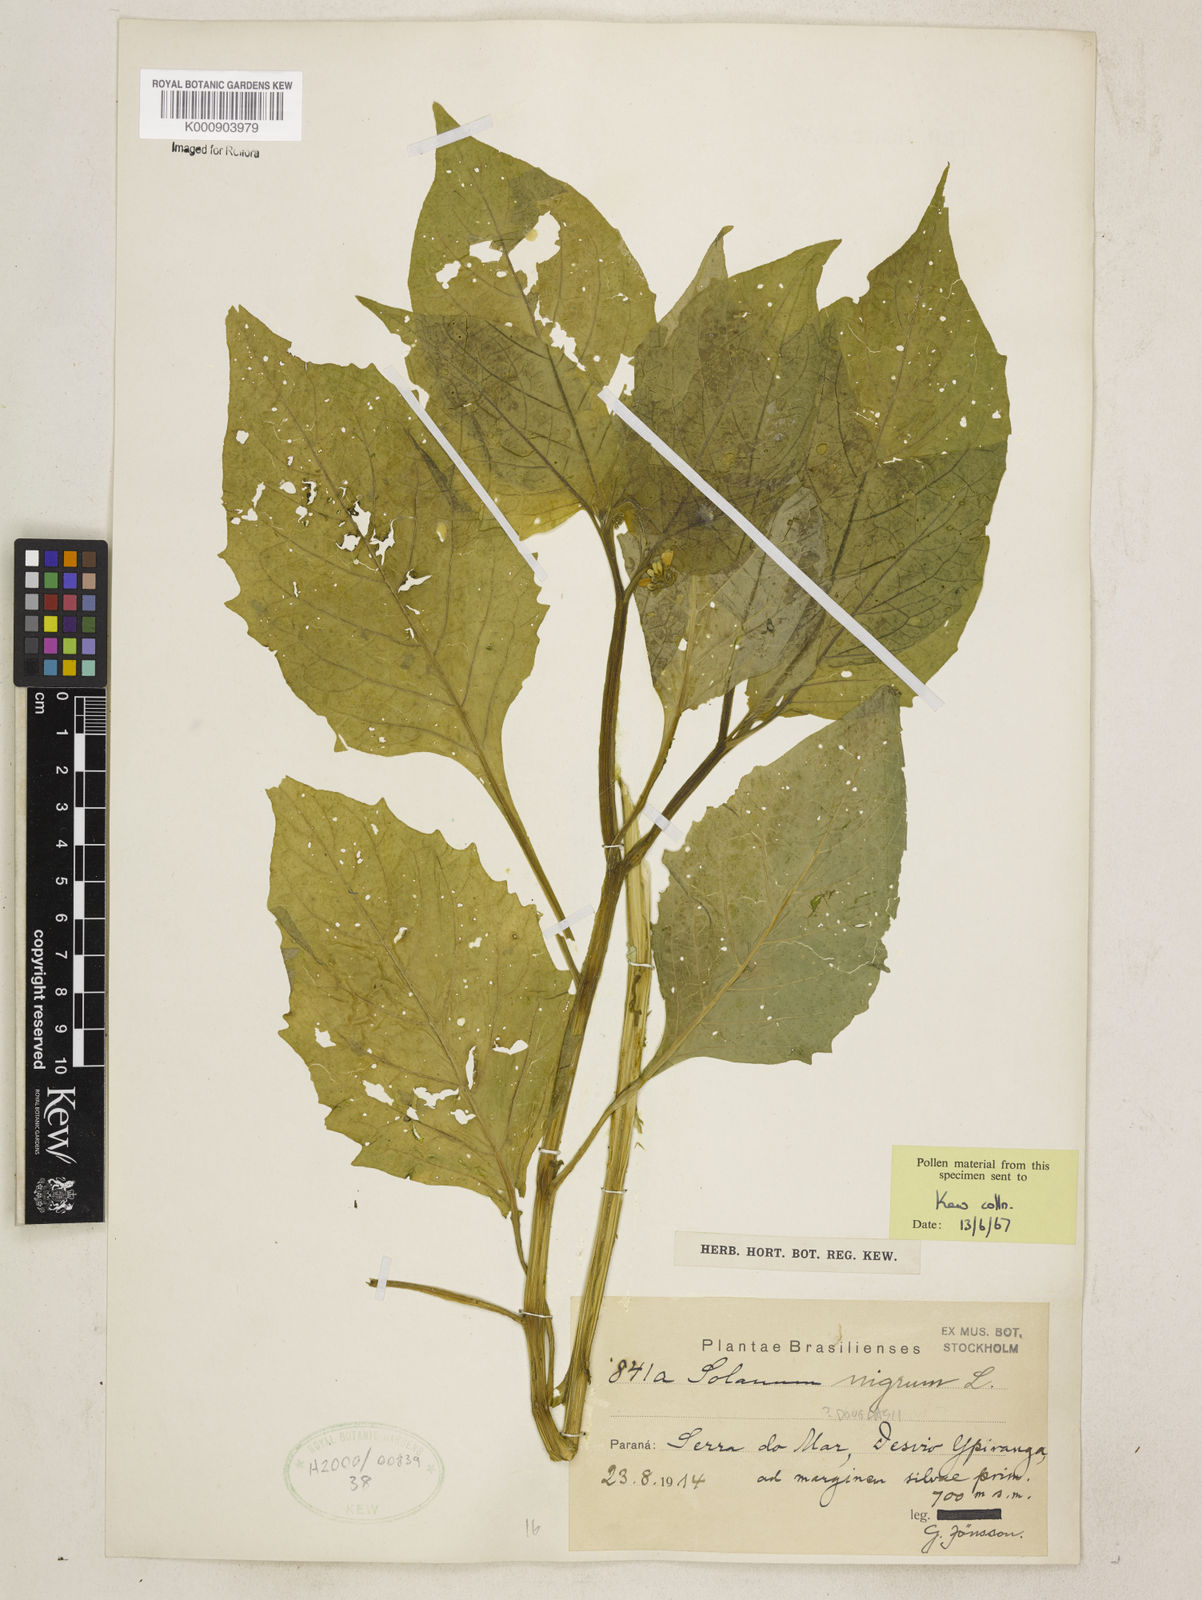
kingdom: Plantae
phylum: Tracheophyta
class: Magnoliopsida
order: Solanales
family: Solanaceae
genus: Solanum
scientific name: Solanum paucidens
